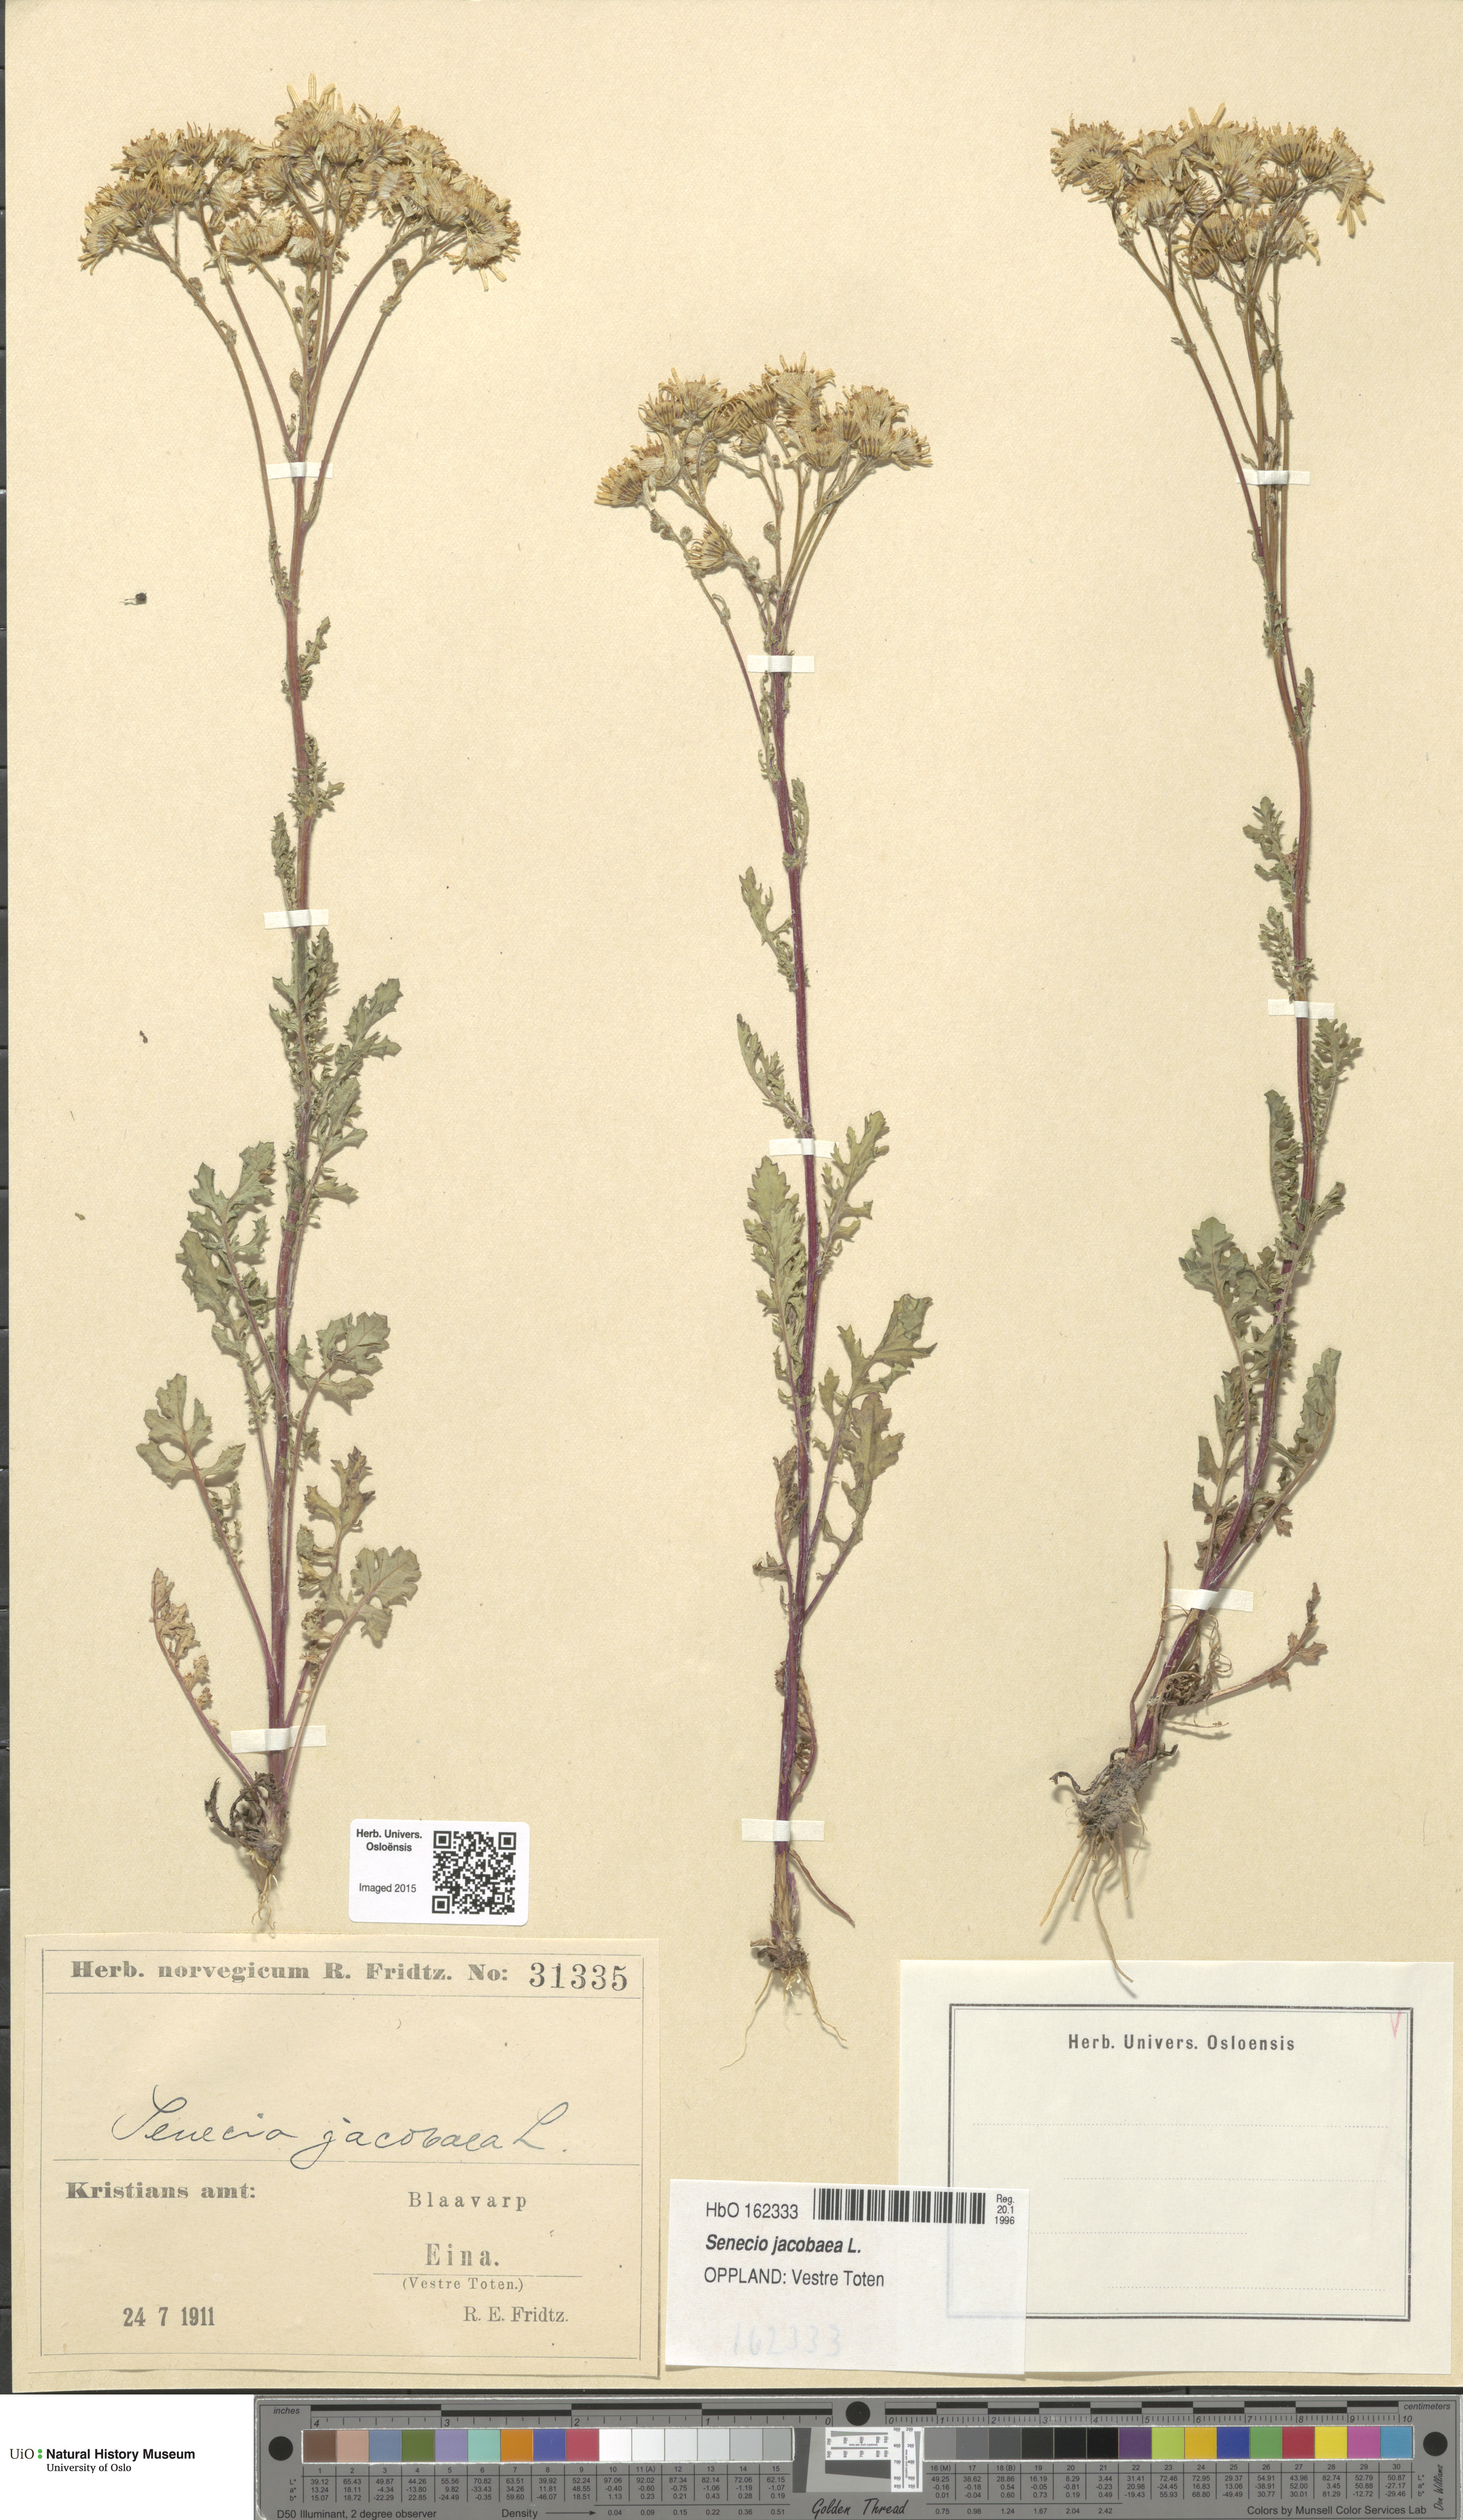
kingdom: Plantae
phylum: Tracheophyta
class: Magnoliopsida
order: Asterales
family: Asteraceae
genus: Jacobaea
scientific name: Jacobaea vulgaris
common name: Stinking willie
